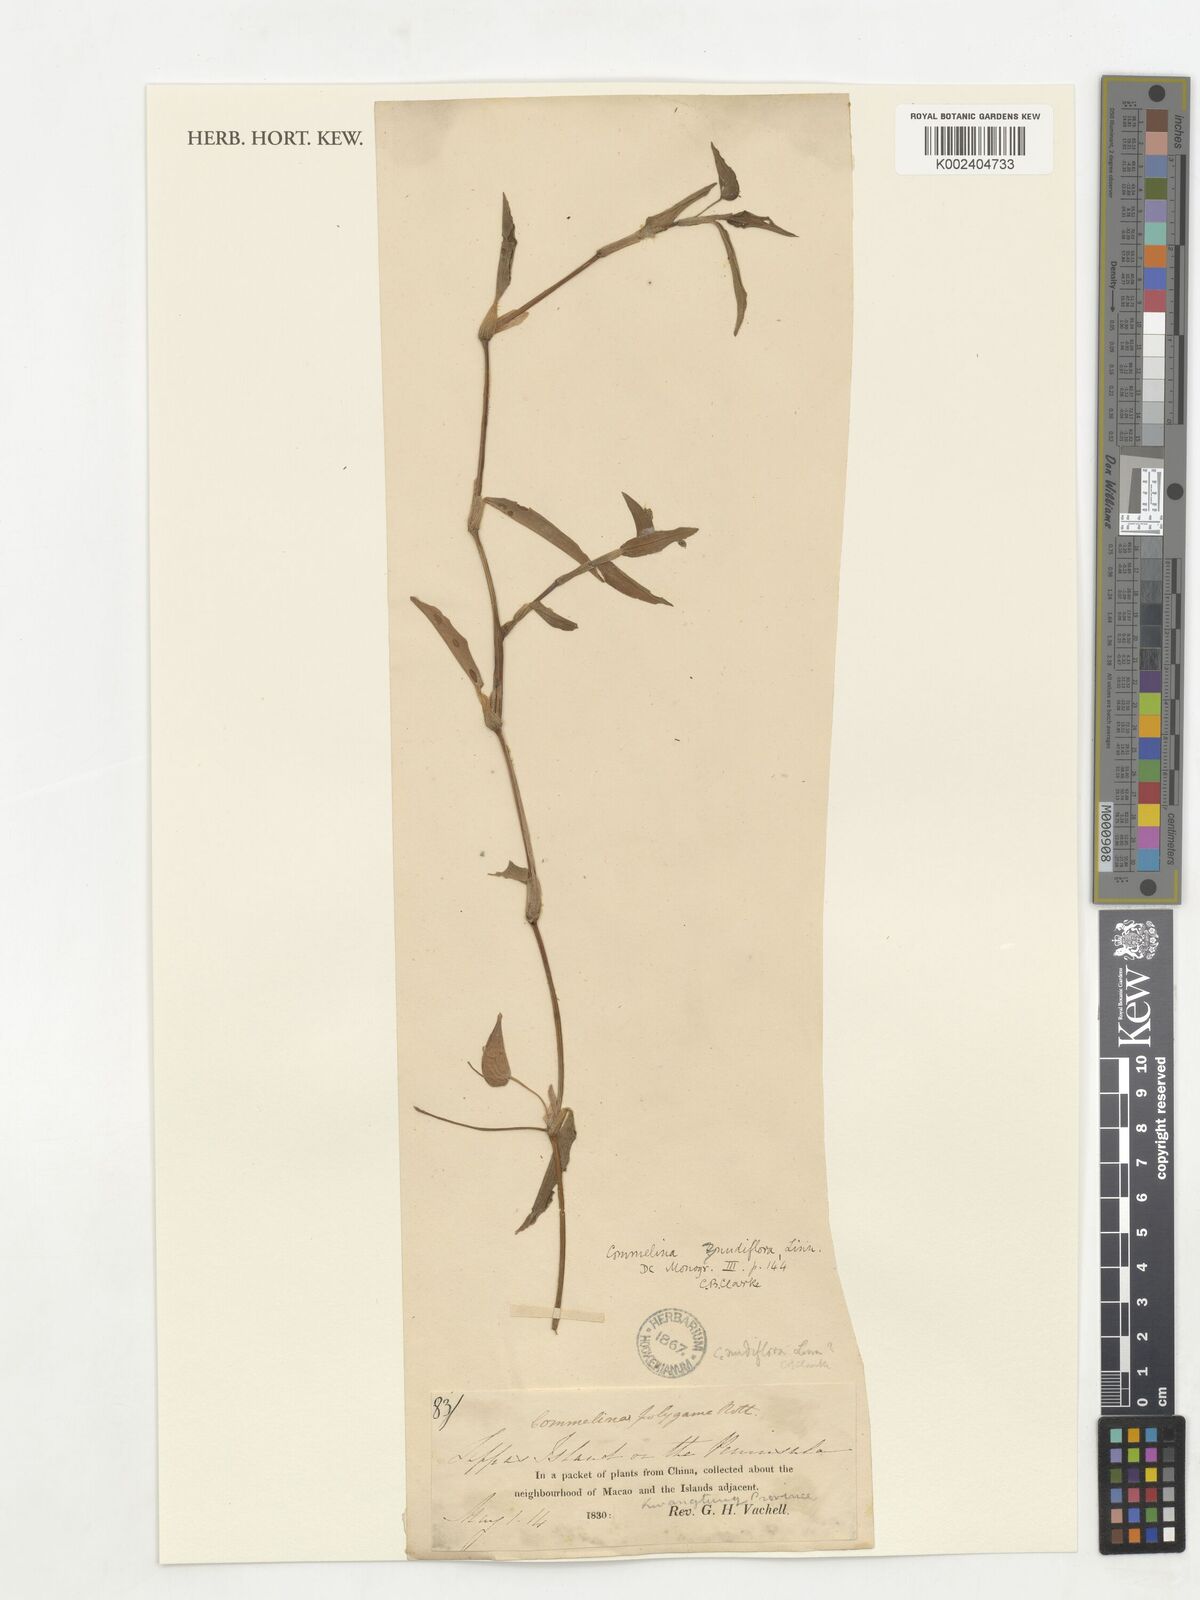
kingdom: Plantae
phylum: Tracheophyta
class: Liliopsida
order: Commelinales
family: Commelinaceae
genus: Murdannia
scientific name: Murdannia nudiflora
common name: Nakedstem dewflower
